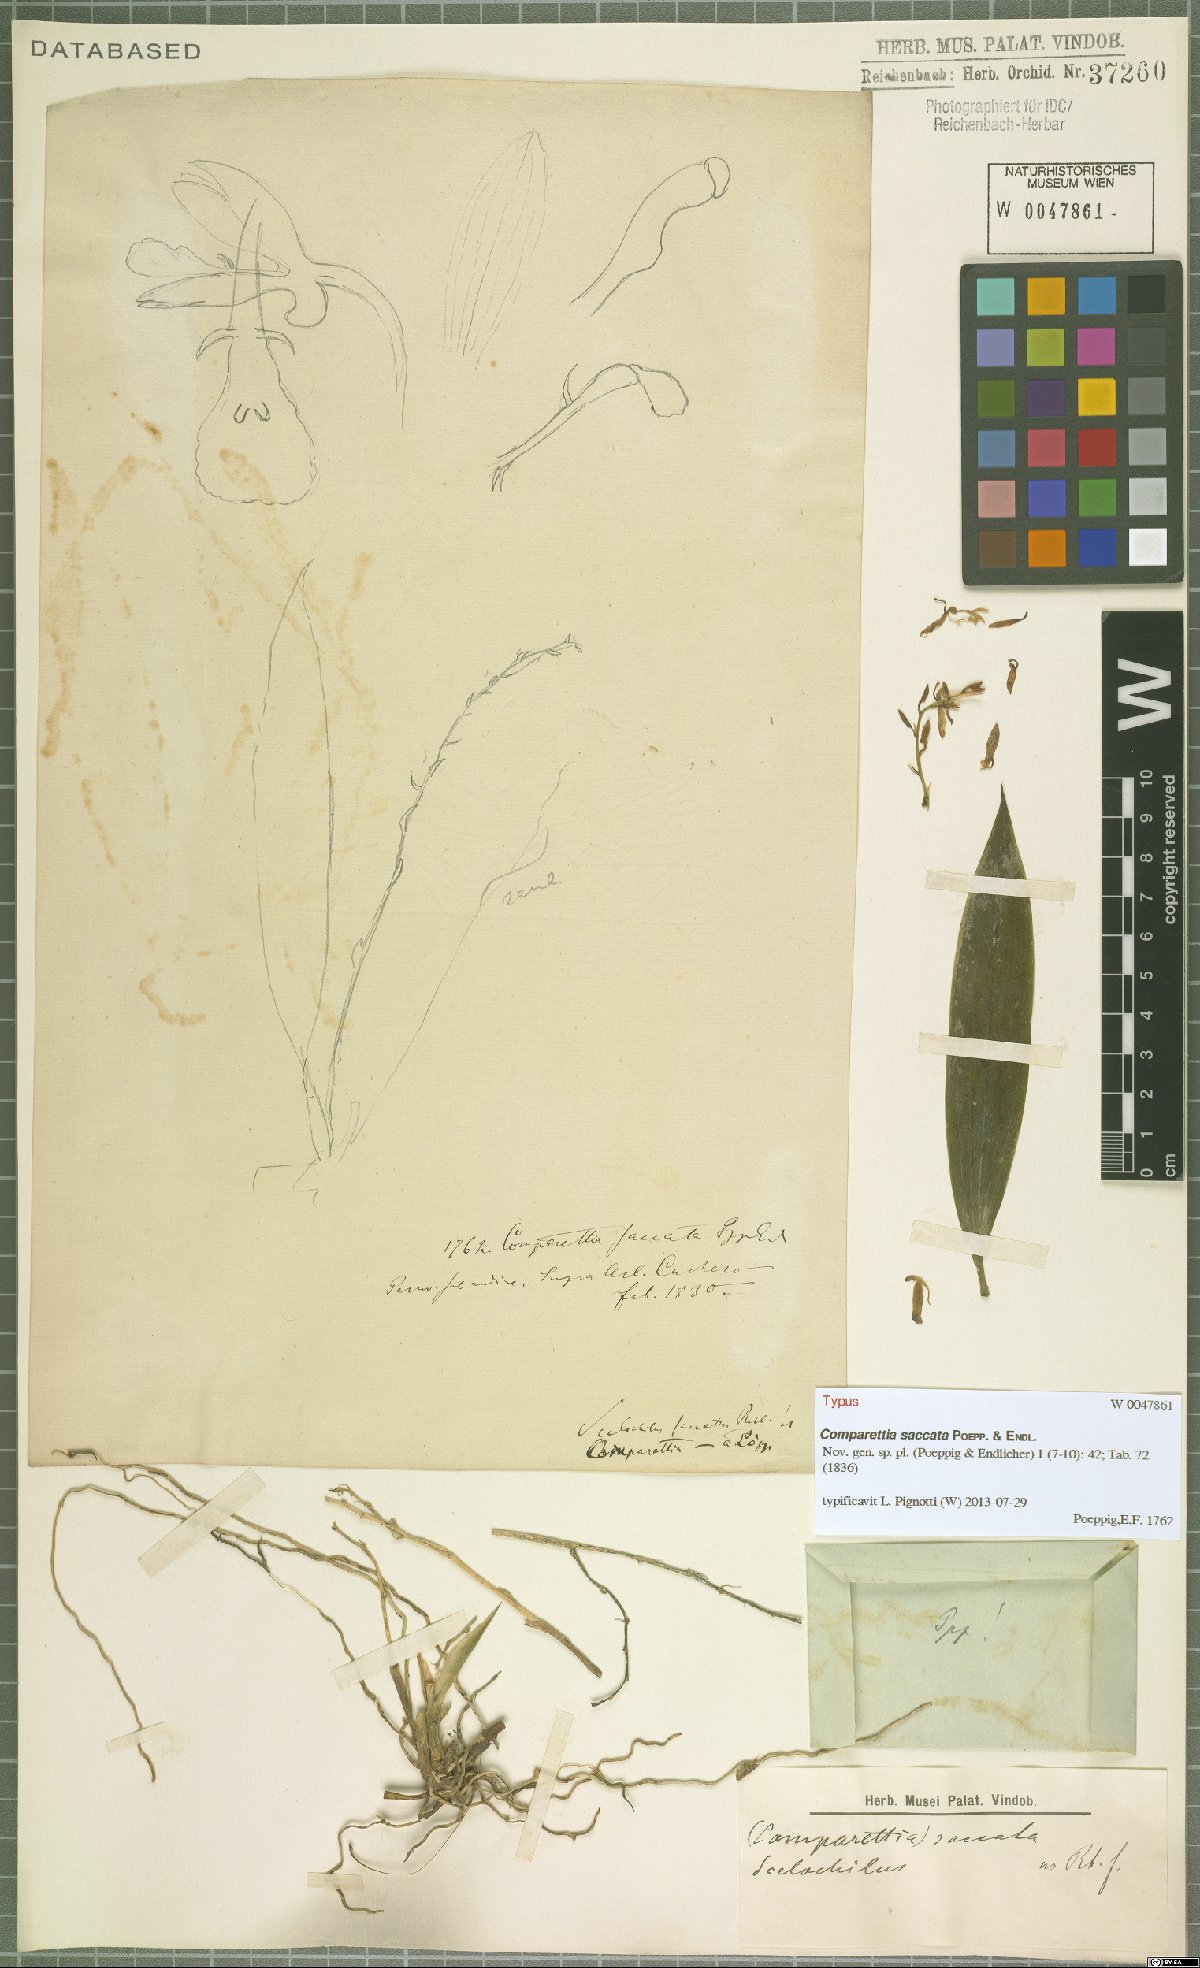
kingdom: Plantae
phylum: Tracheophyta
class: Liliopsida
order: Asparagales
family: Orchidaceae
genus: Comparettia
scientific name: Comparettia saccata
